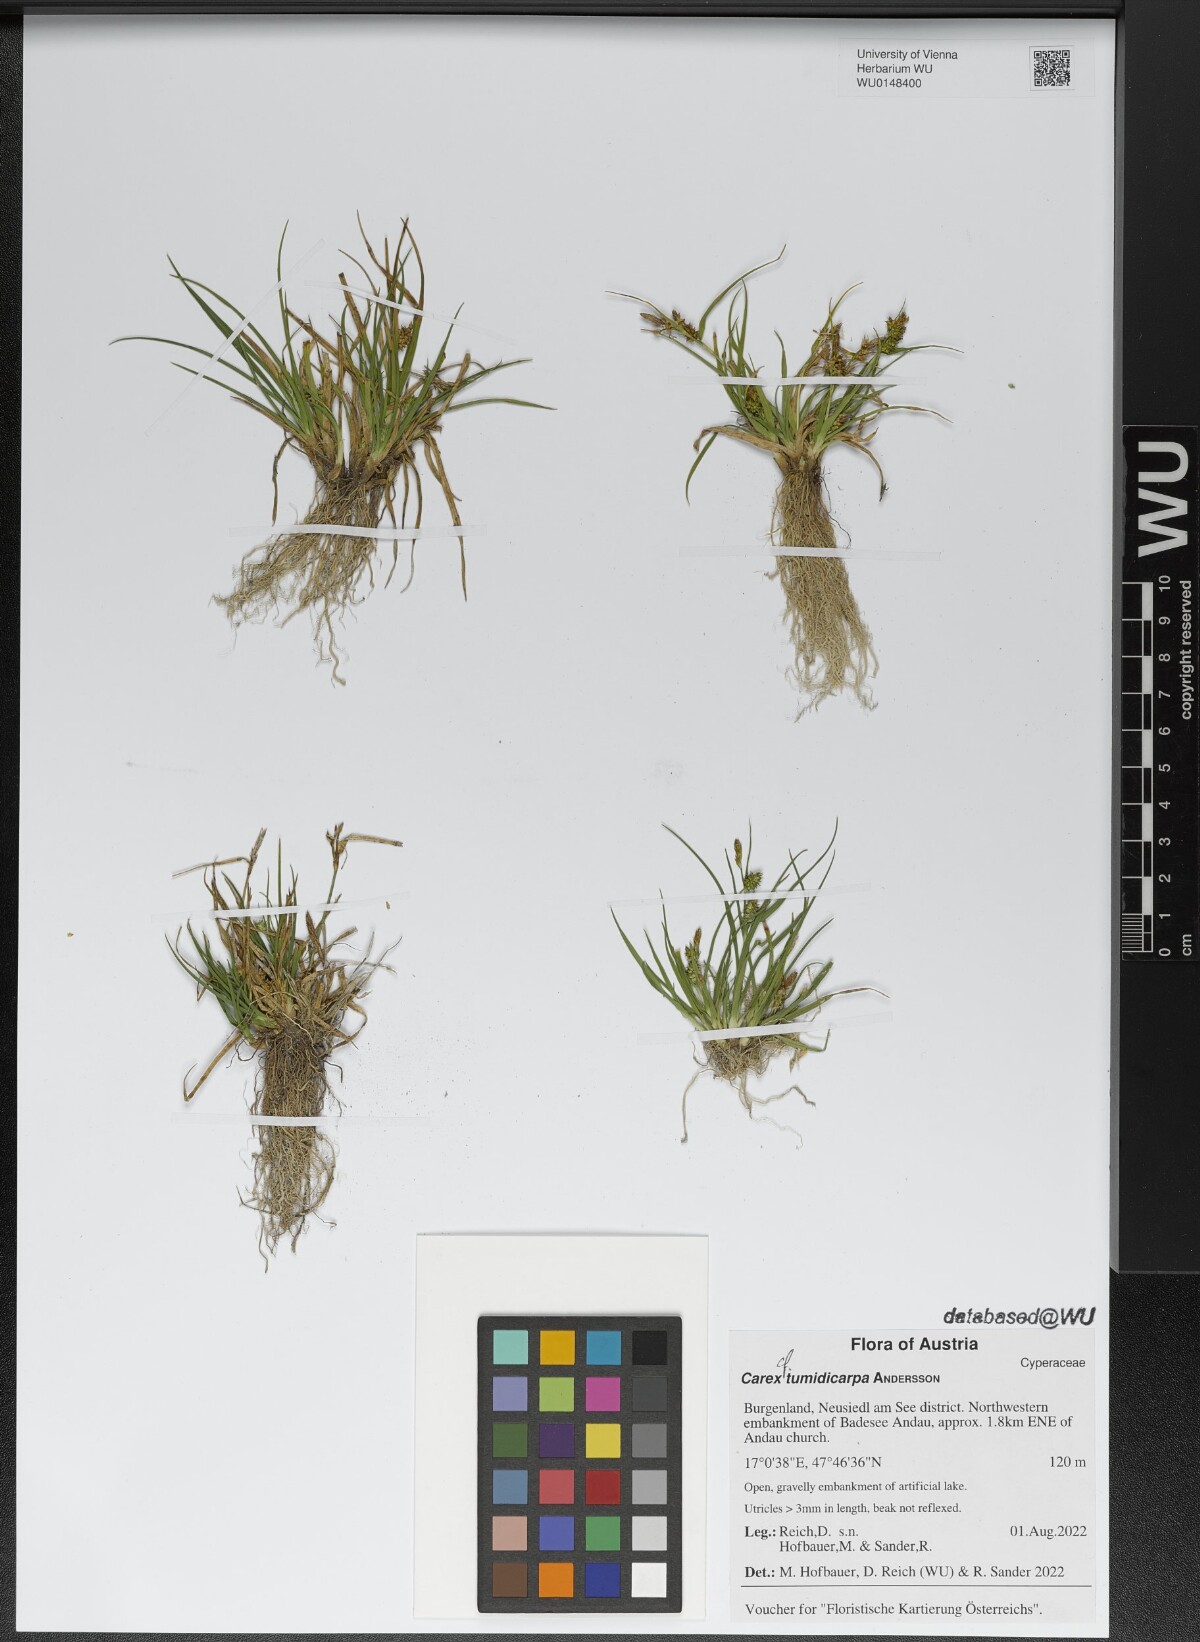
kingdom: Plantae
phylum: Tracheophyta
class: Liliopsida
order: Poales
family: Cyperaceae
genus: Carex
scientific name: Carex demissa
